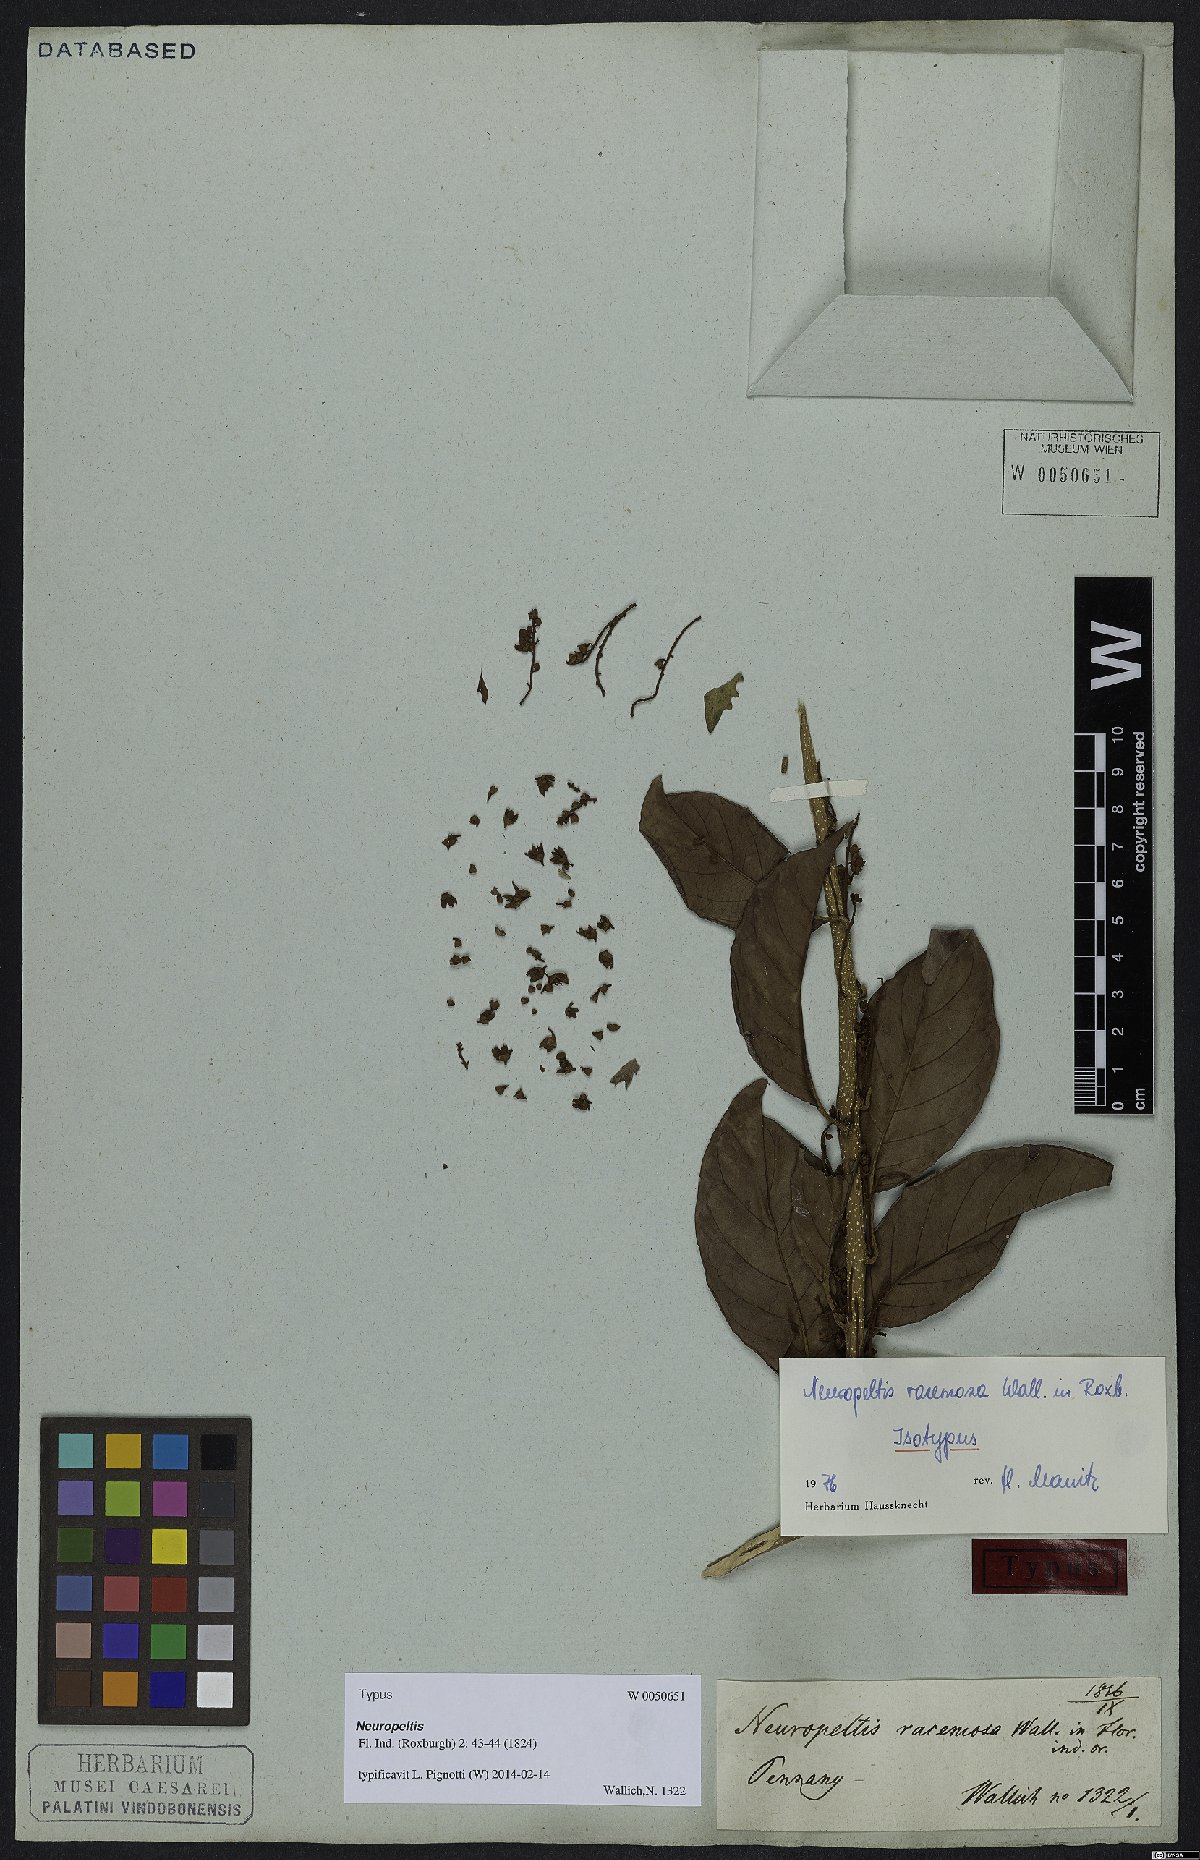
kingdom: Plantae
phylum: Tracheophyta
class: Magnoliopsida
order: Solanales
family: Convolvulaceae
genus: Neuropeltis
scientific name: Neuropeltis racemosa
